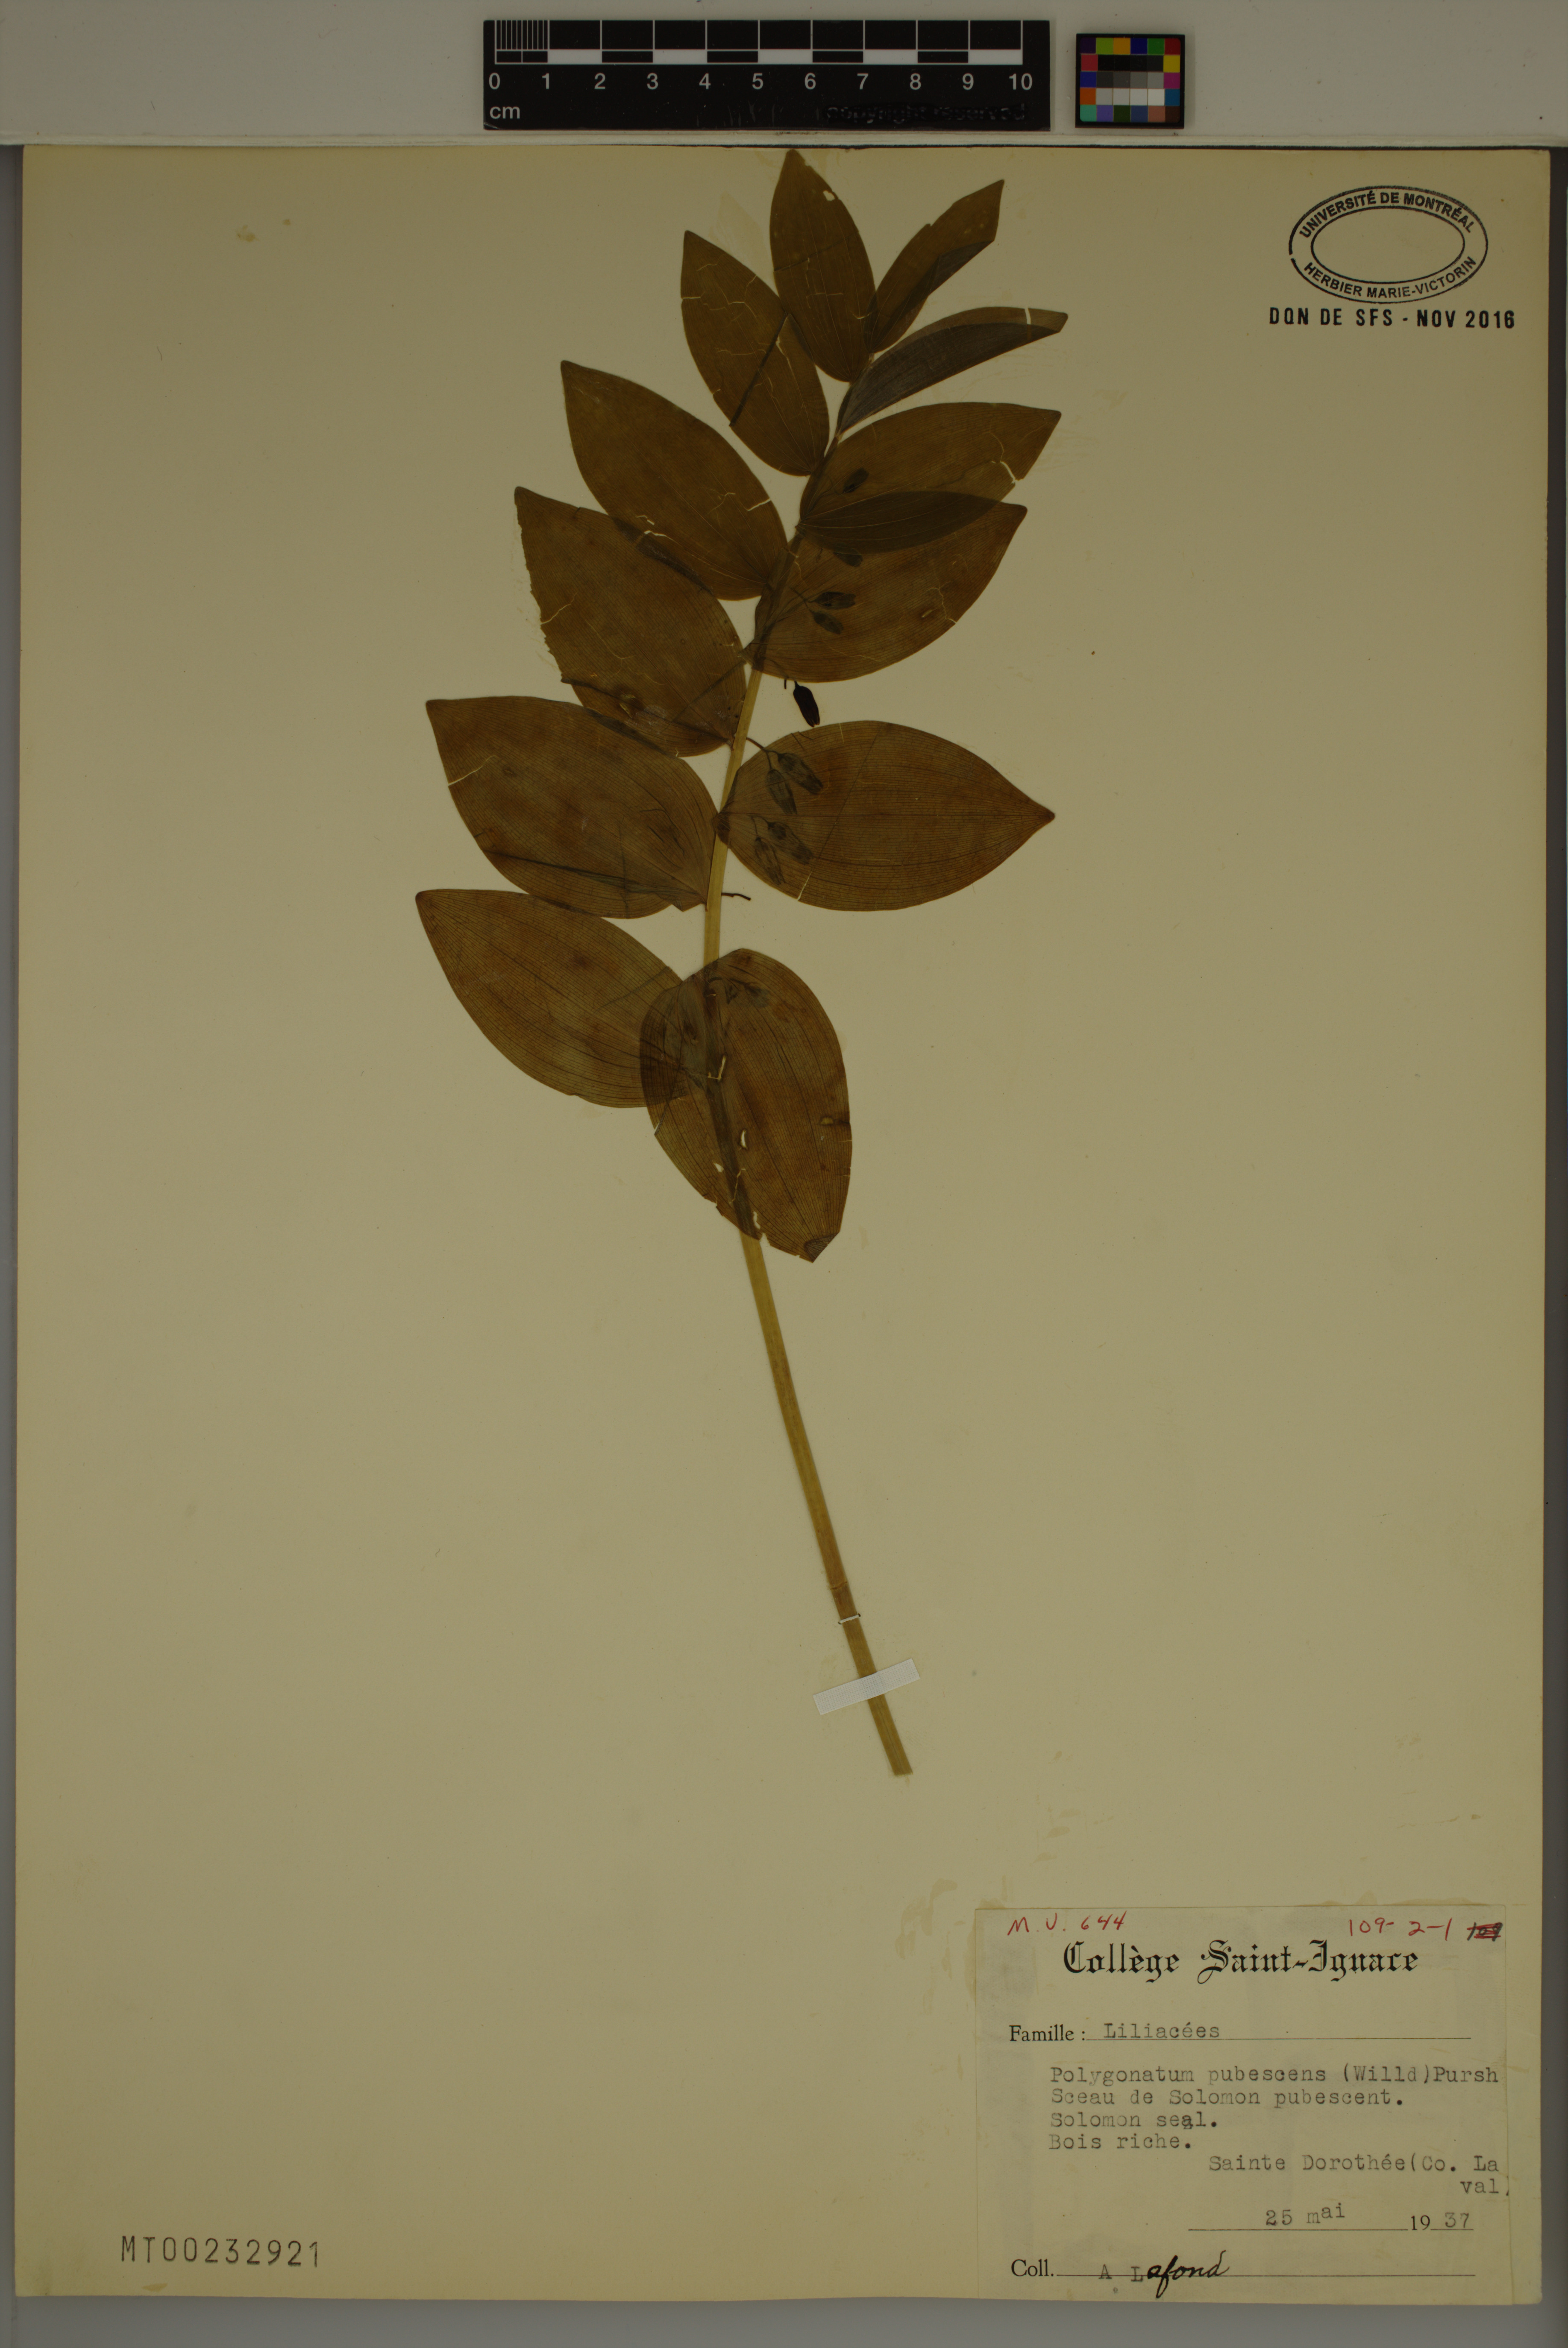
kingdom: Plantae
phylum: Tracheophyta
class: Liliopsida
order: Asparagales
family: Asparagaceae
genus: Polygonatum
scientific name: Polygonatum pubescens
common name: Downy solomon's seal
